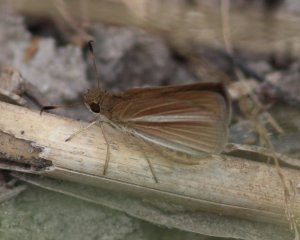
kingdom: Animalia
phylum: Arthropoda
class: Insecta
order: Lepidoptera
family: Hesperiidae
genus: Vidius
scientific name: Vidius perigenes
